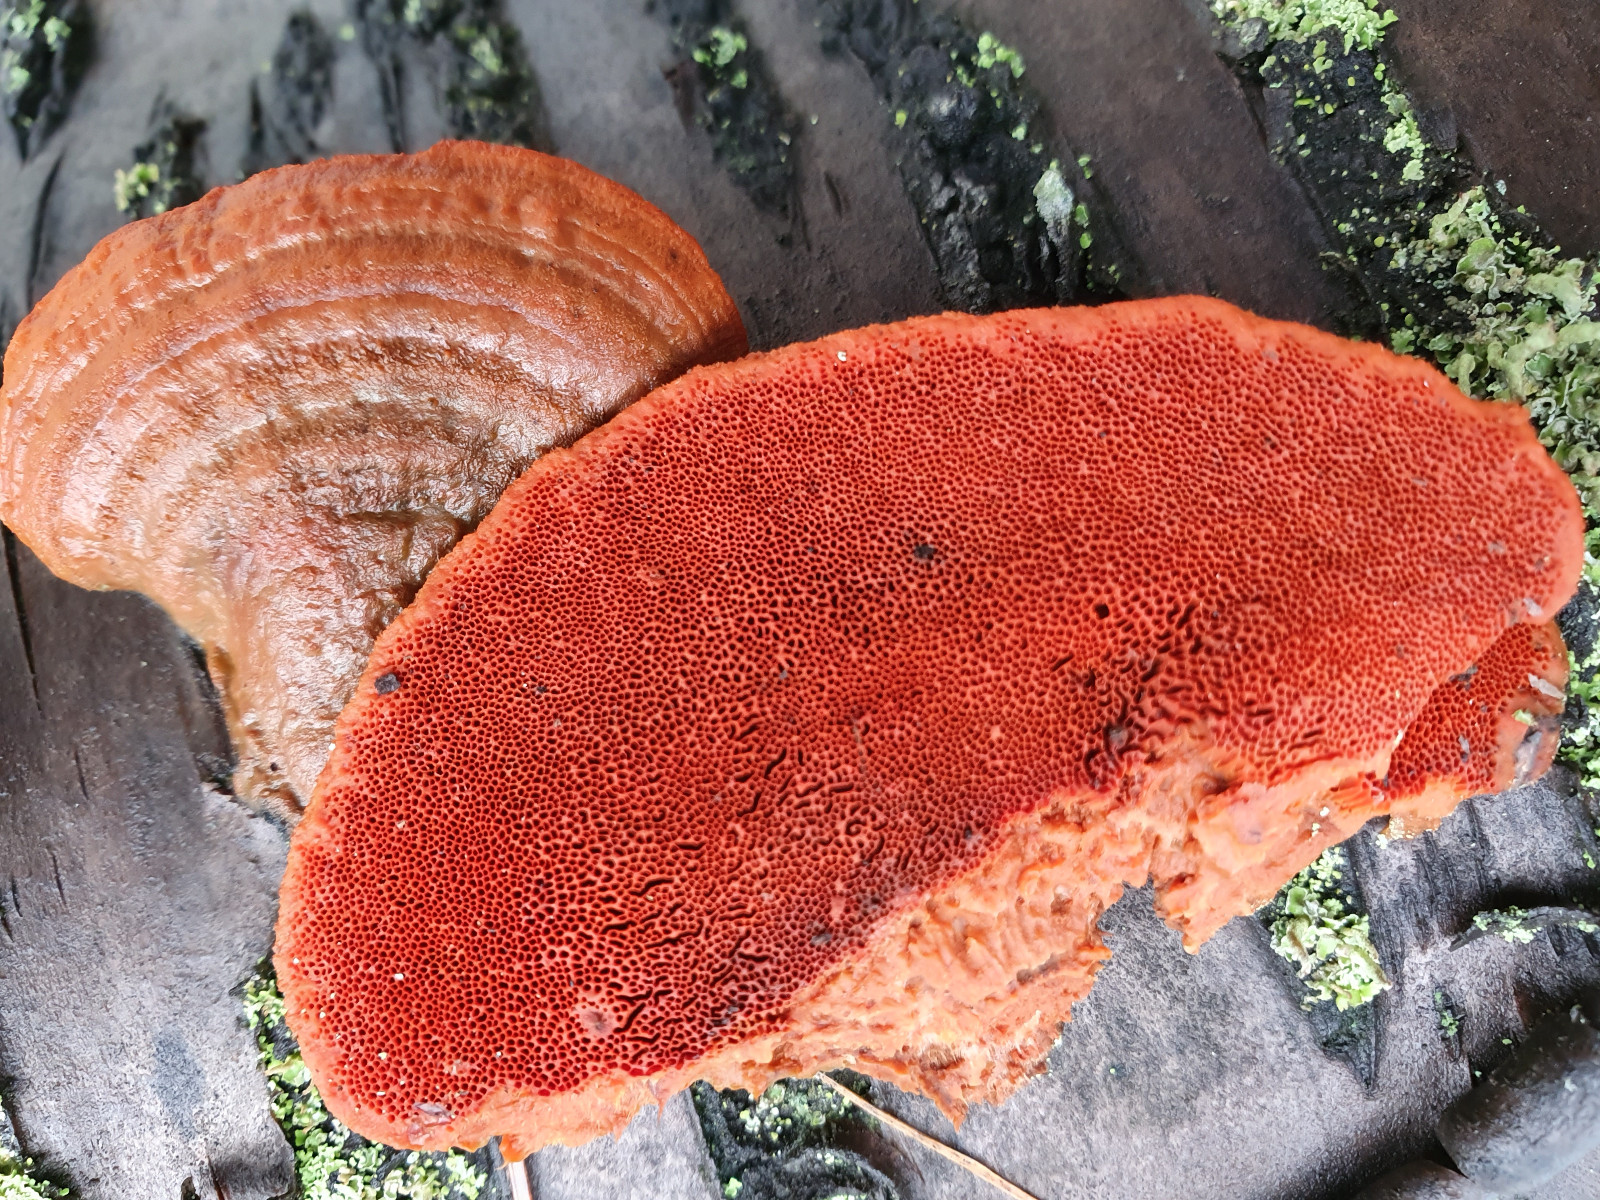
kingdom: Fungi
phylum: Basidiomycota
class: Agaricomycetes
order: Polyporales
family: Polyporaceae
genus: Trametes
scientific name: Trametes cinnabarina
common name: cinnoberporesvamp
